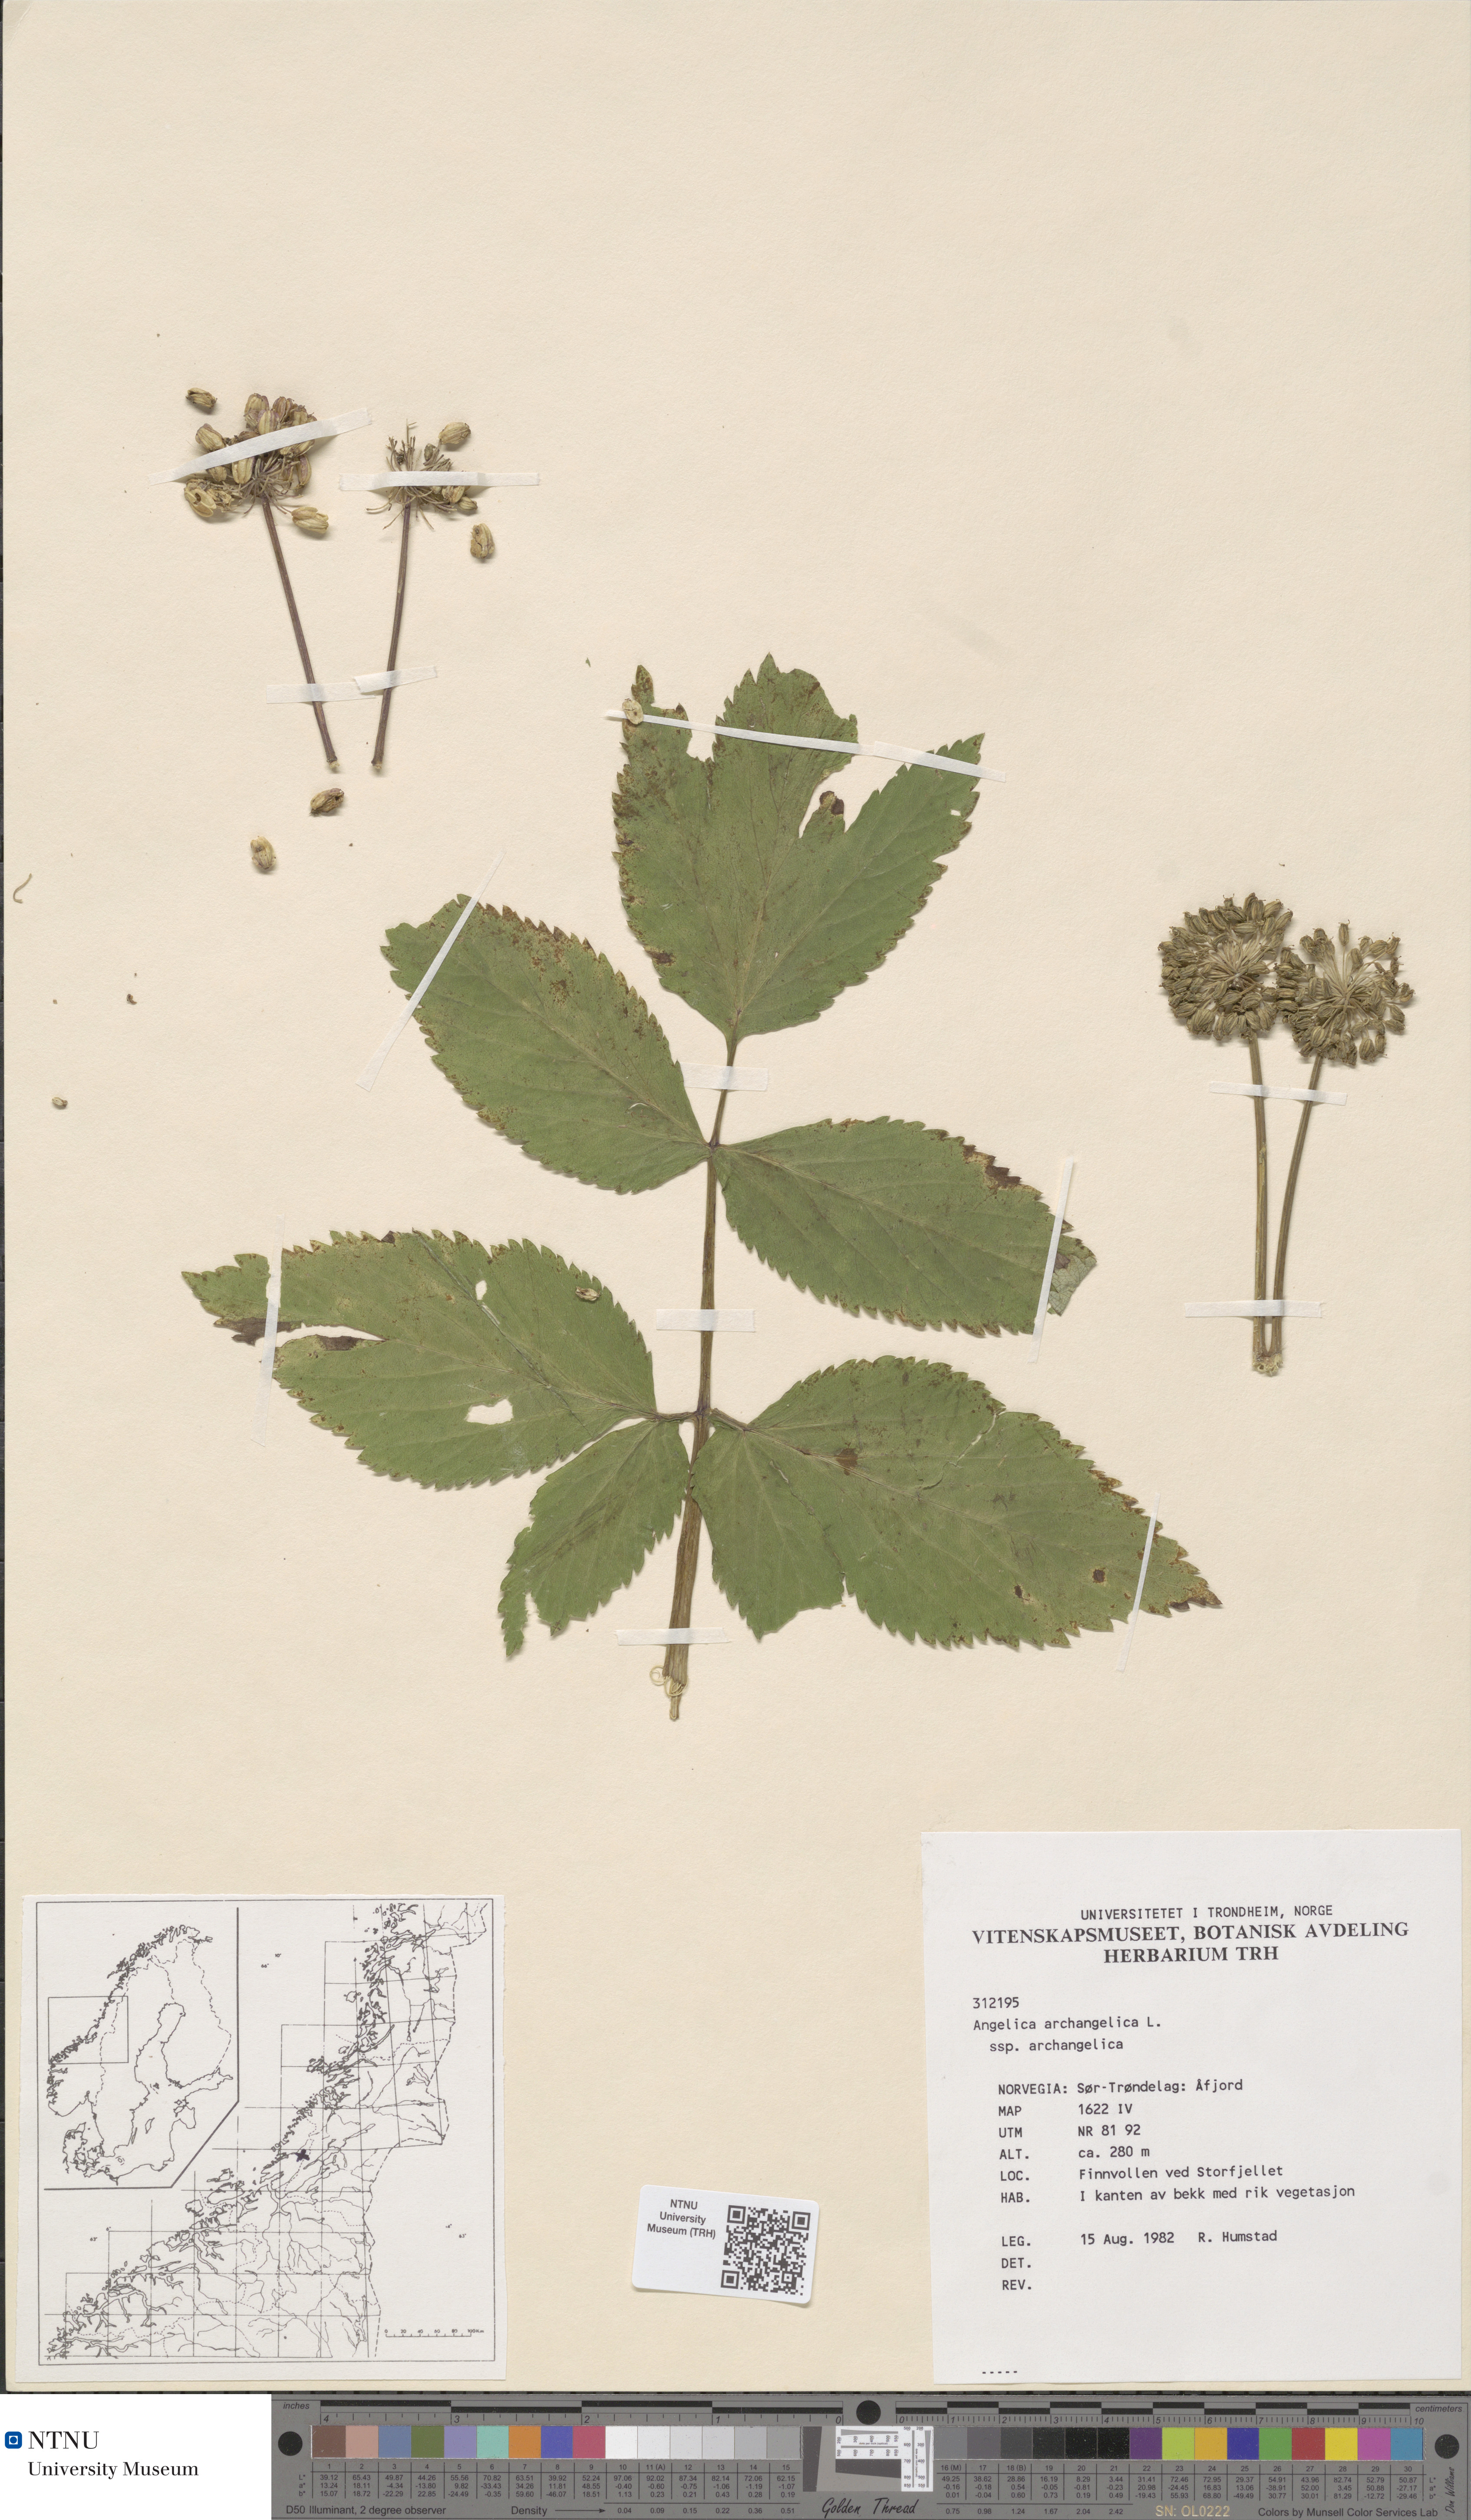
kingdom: Plantae
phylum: Tracheophyta
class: Magnoliopsida
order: Apiales
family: Apiaceae
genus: Angelica
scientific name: Angelica archangelica
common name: Garden angelica
